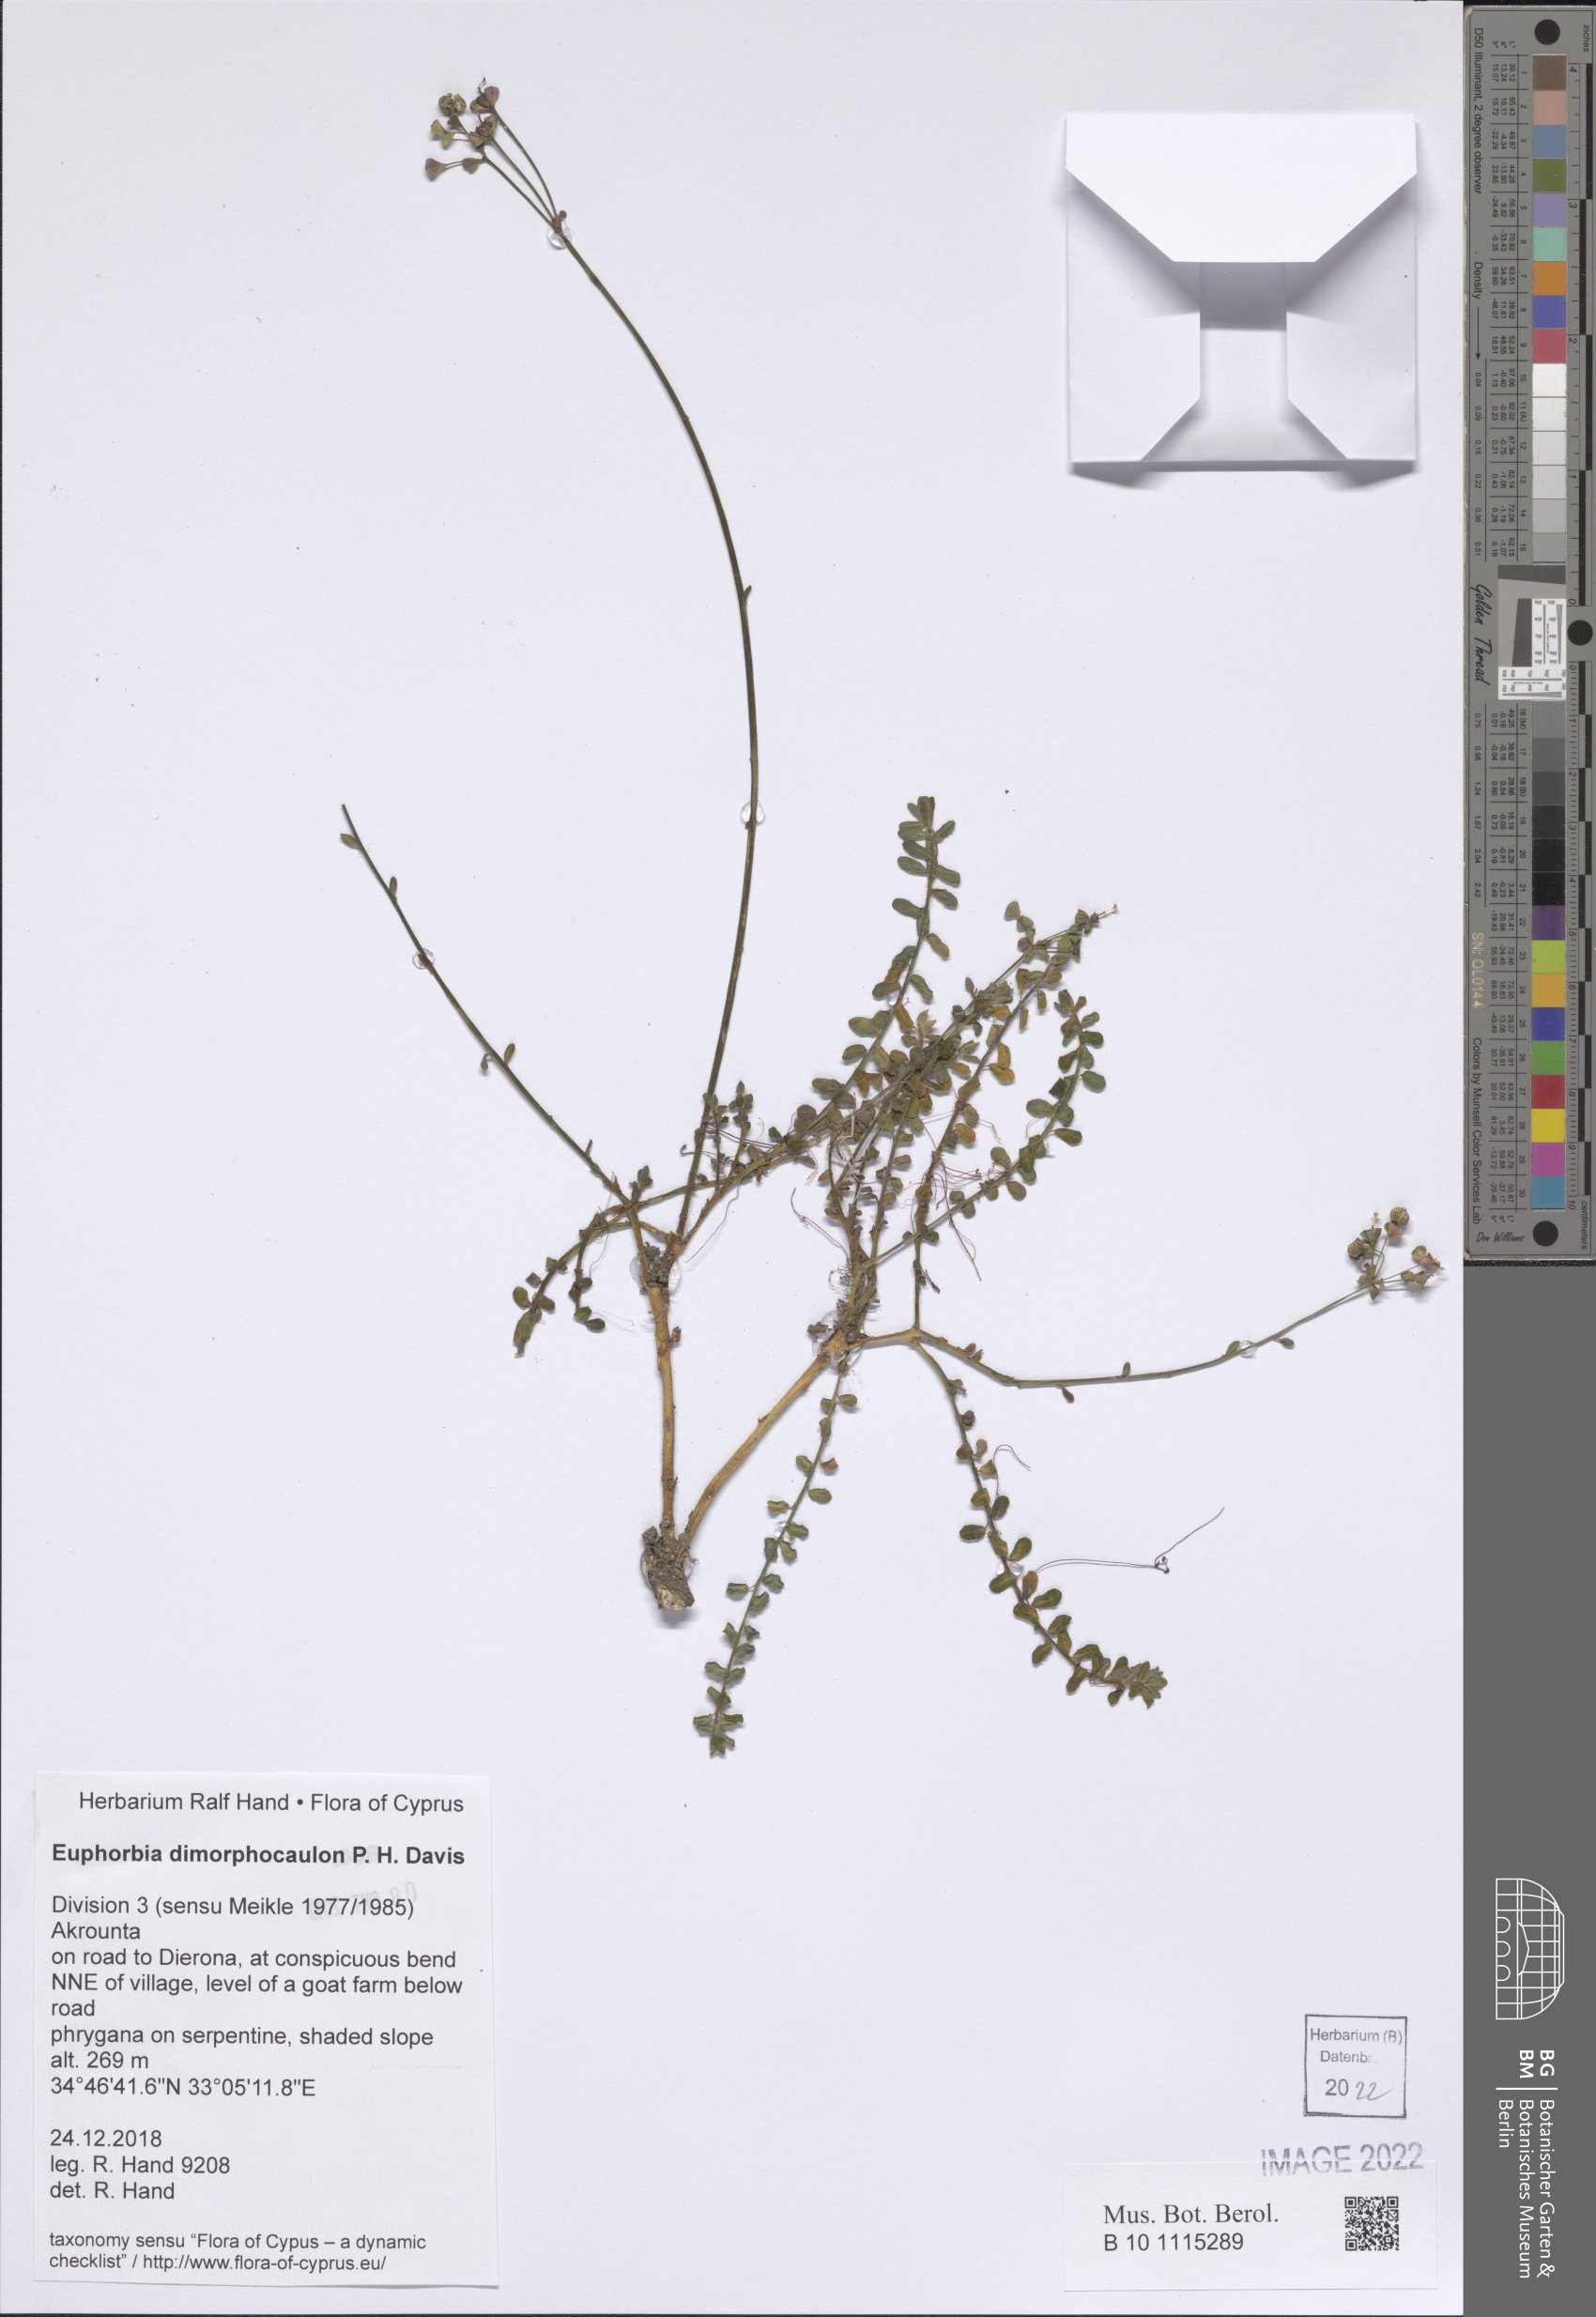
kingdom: Plantae
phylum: Tracheophyta
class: Magnoliopsida
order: Malpighiales
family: Euphorbiaceae
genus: Euphorbia
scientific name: Euphorbia dimorphocaulon
